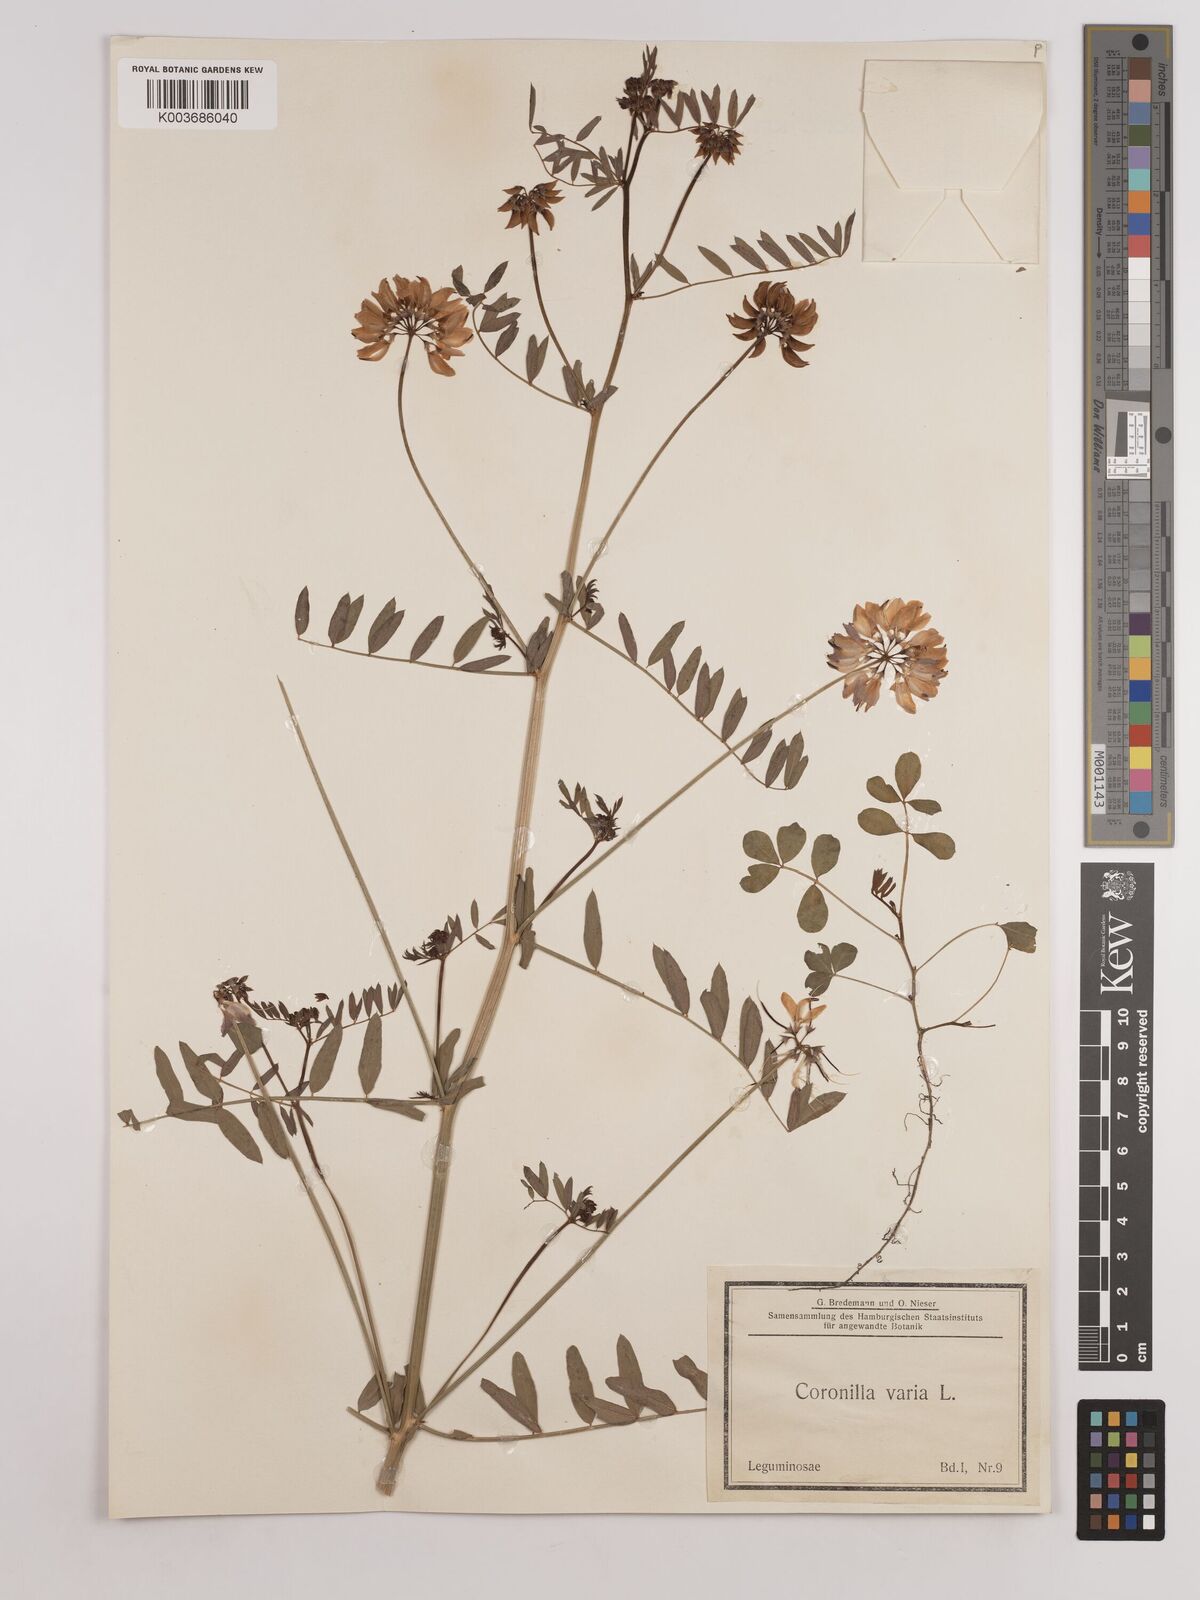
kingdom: Plantae
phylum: Tracheophyta
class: Magnoliopsida
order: Fabales
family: Fabaceae
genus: Coronilla
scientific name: Coronilla varia
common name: Crownvetch
